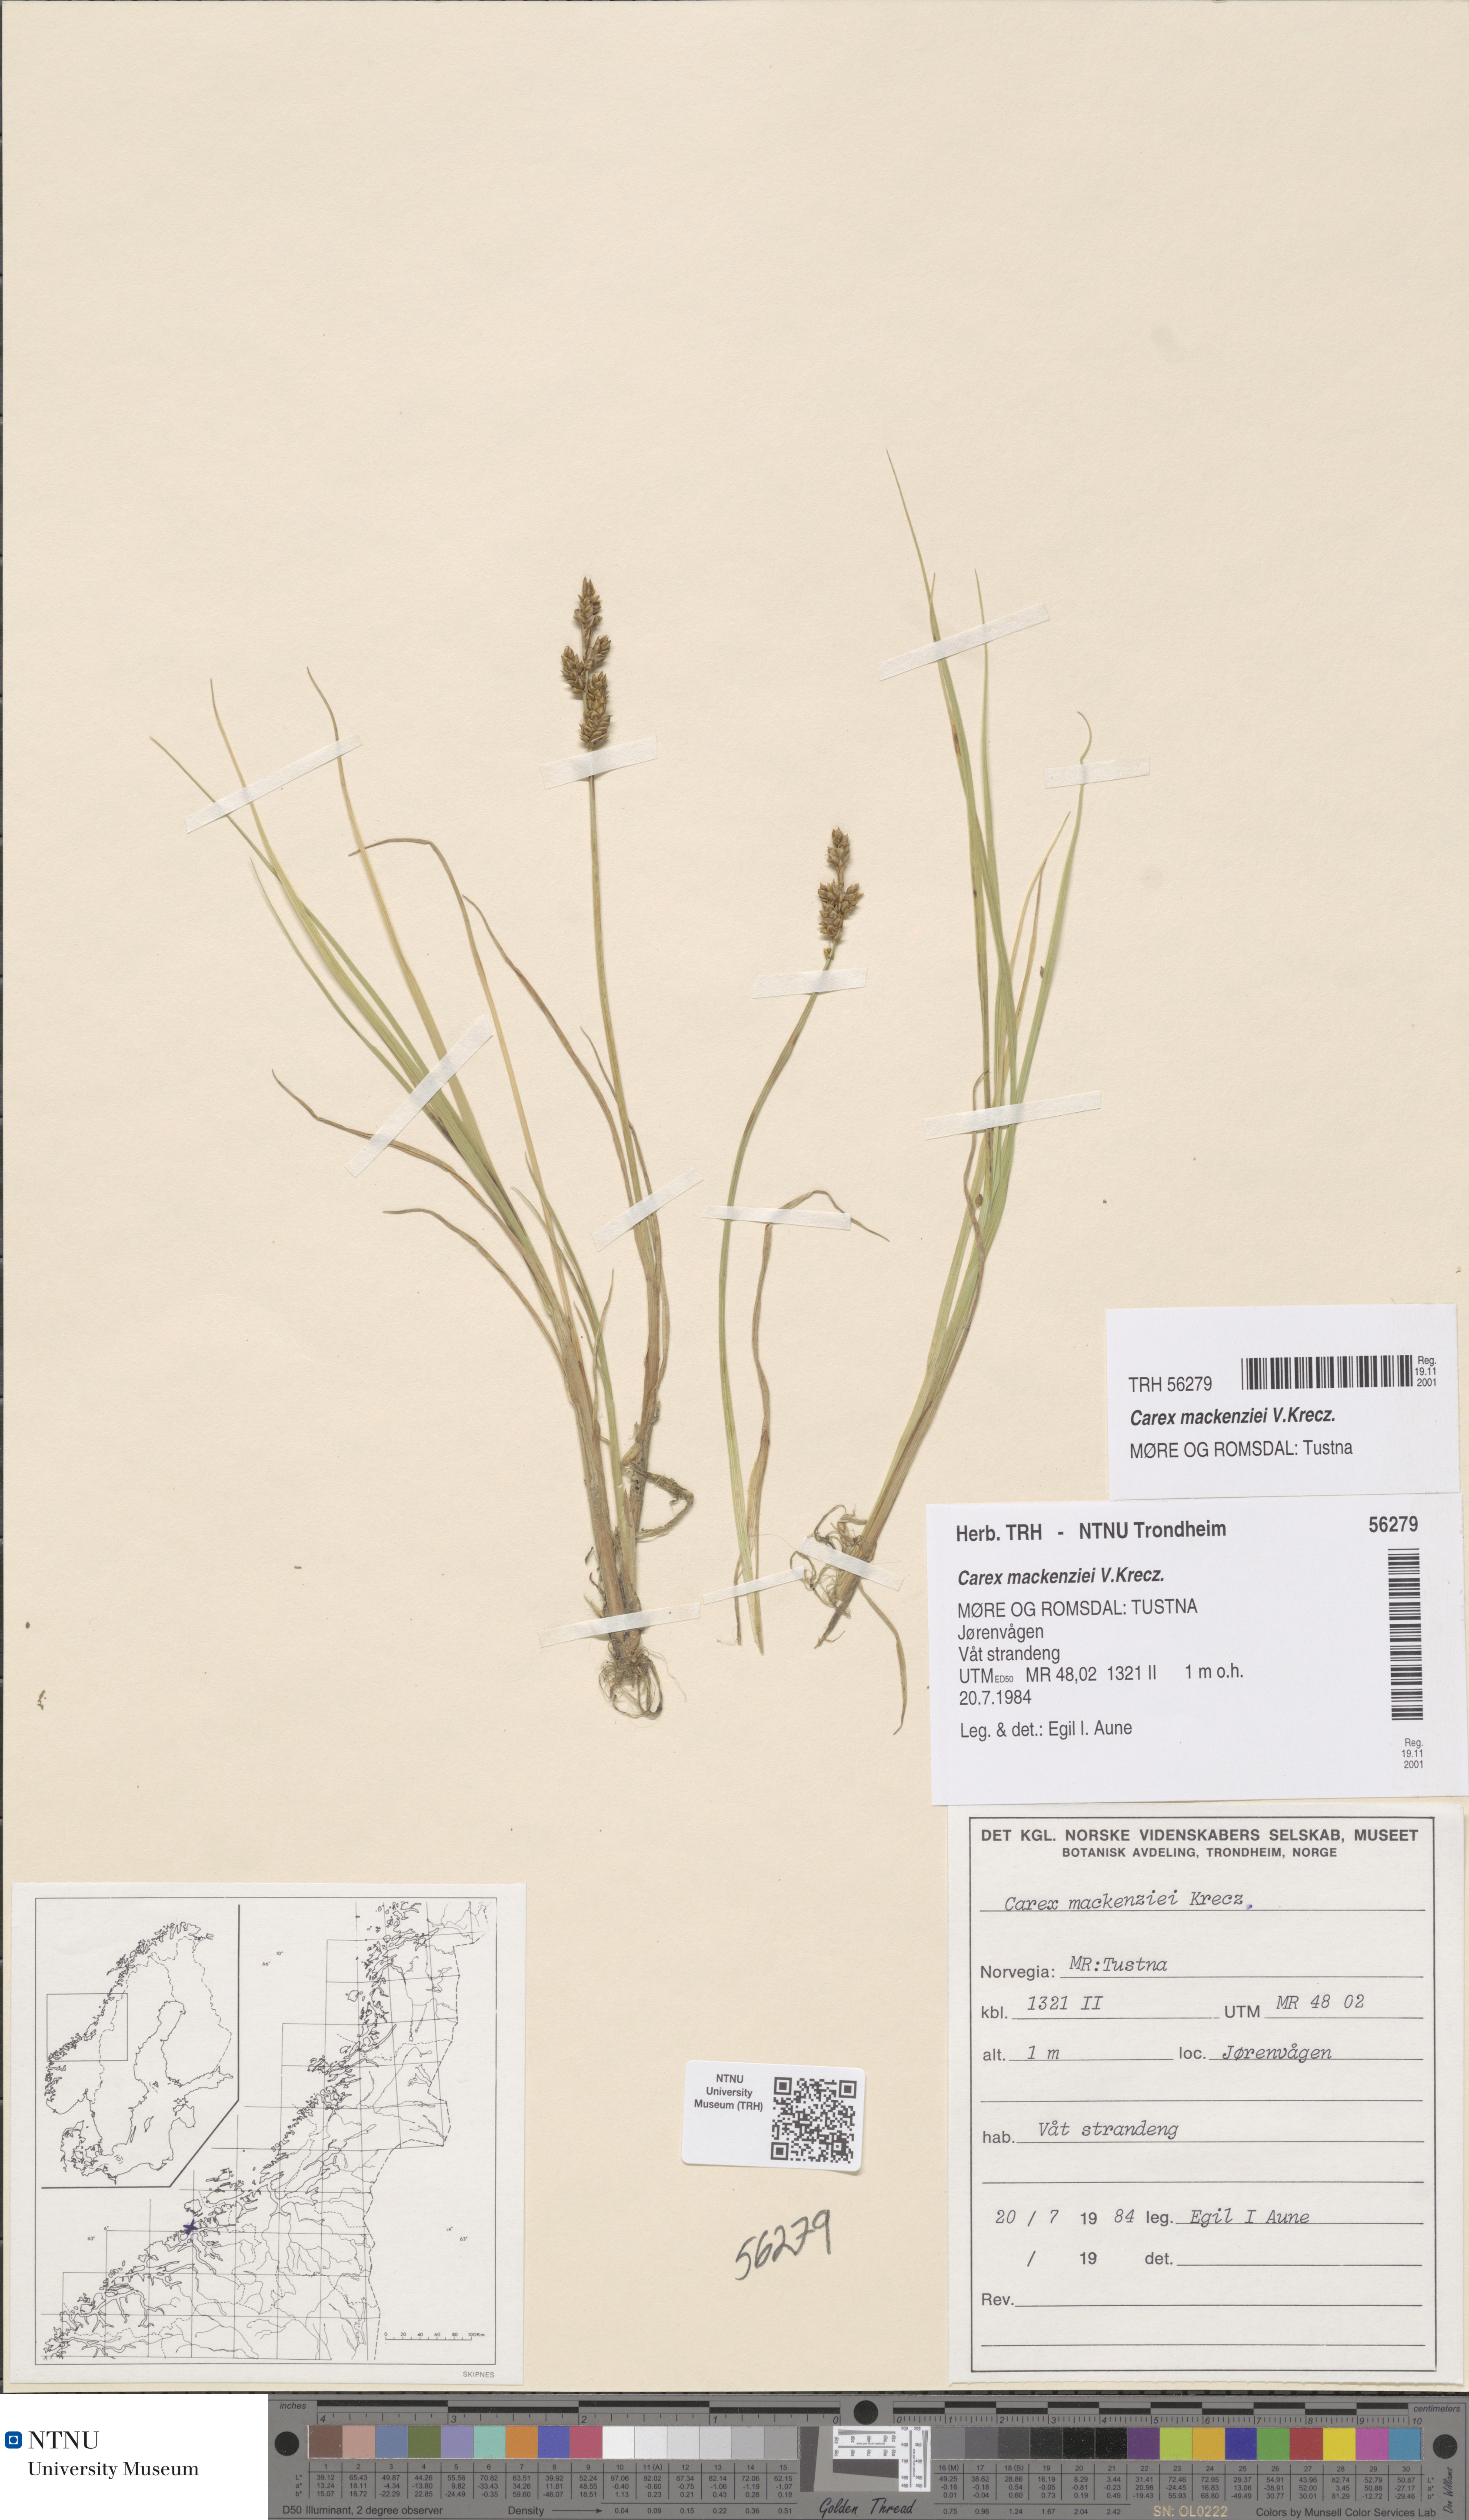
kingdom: Plantae
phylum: Tracheophyta
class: Liliopsida
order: Poales
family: Cyperaceae
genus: Carex
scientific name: Carex mackenziei
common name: Mackenzie's sedge
